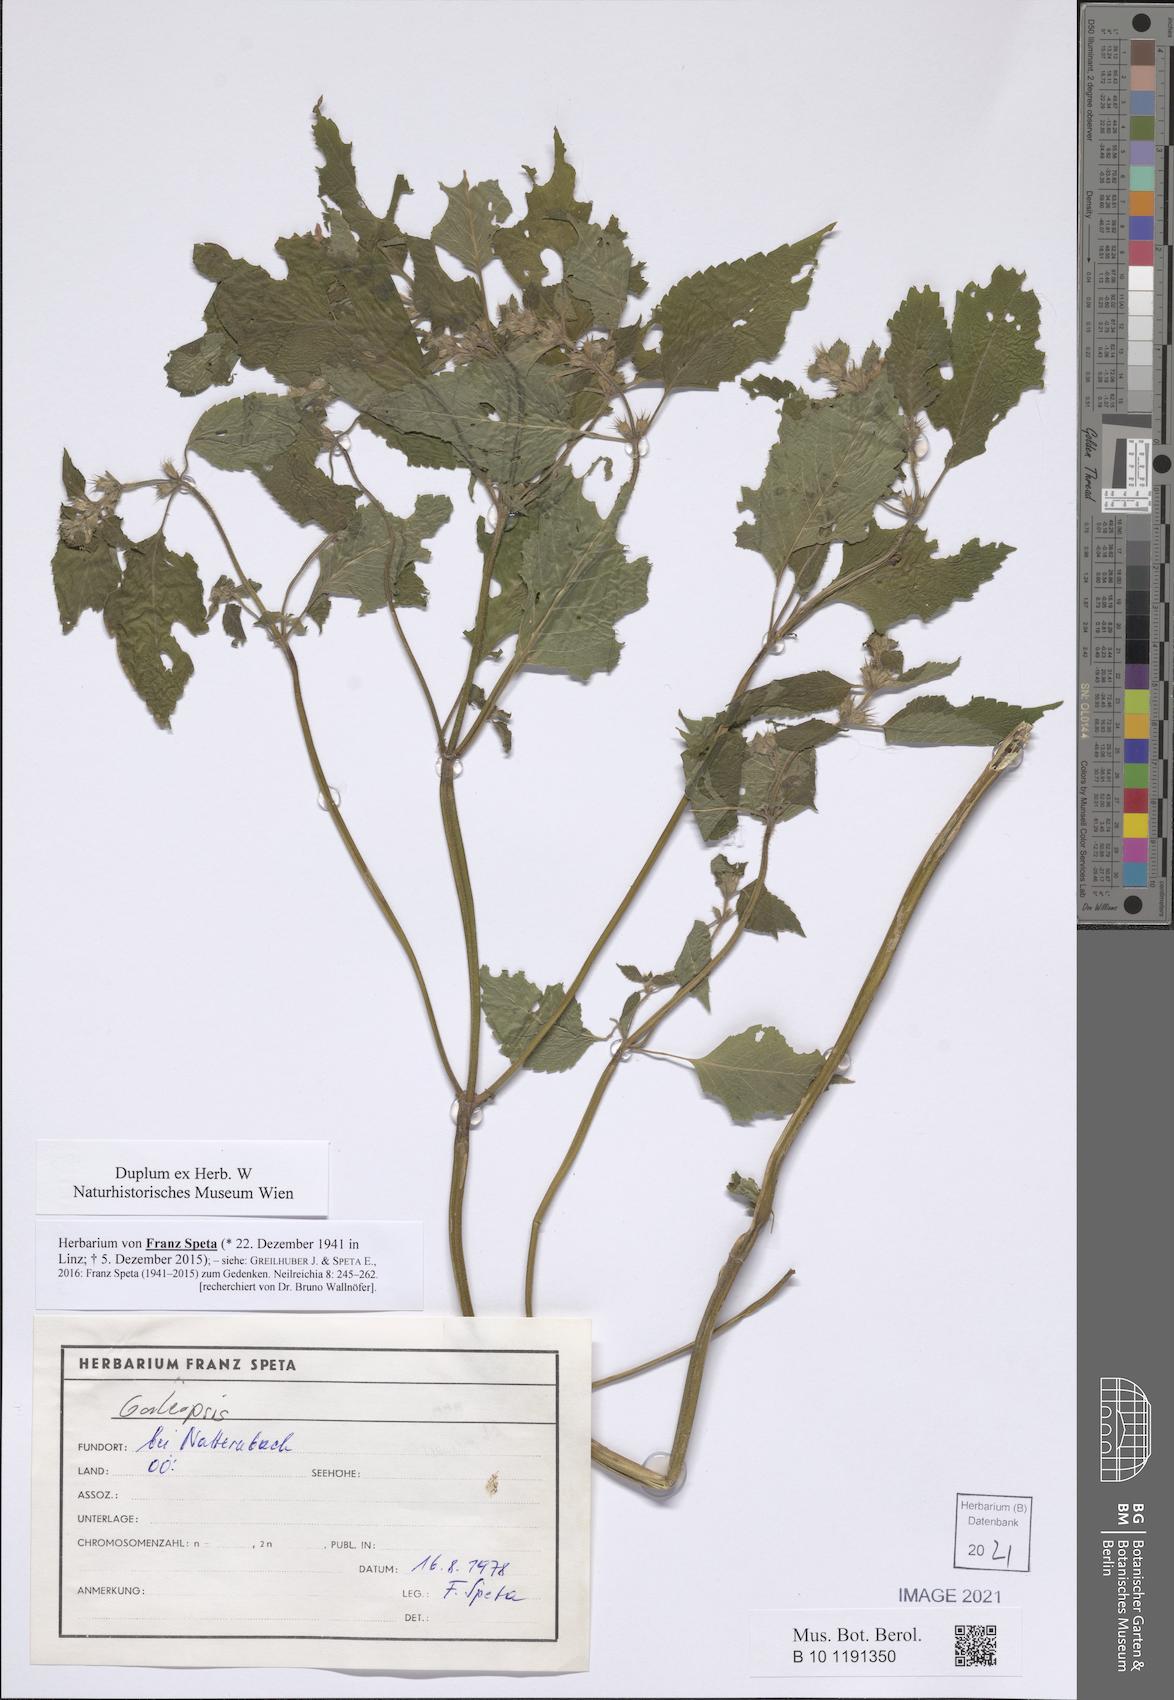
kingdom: Plantae
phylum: Tracheophyta
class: Magnoliopsida
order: Lamiales
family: Lamiaceae
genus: Galeopsis
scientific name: Galeopsis
